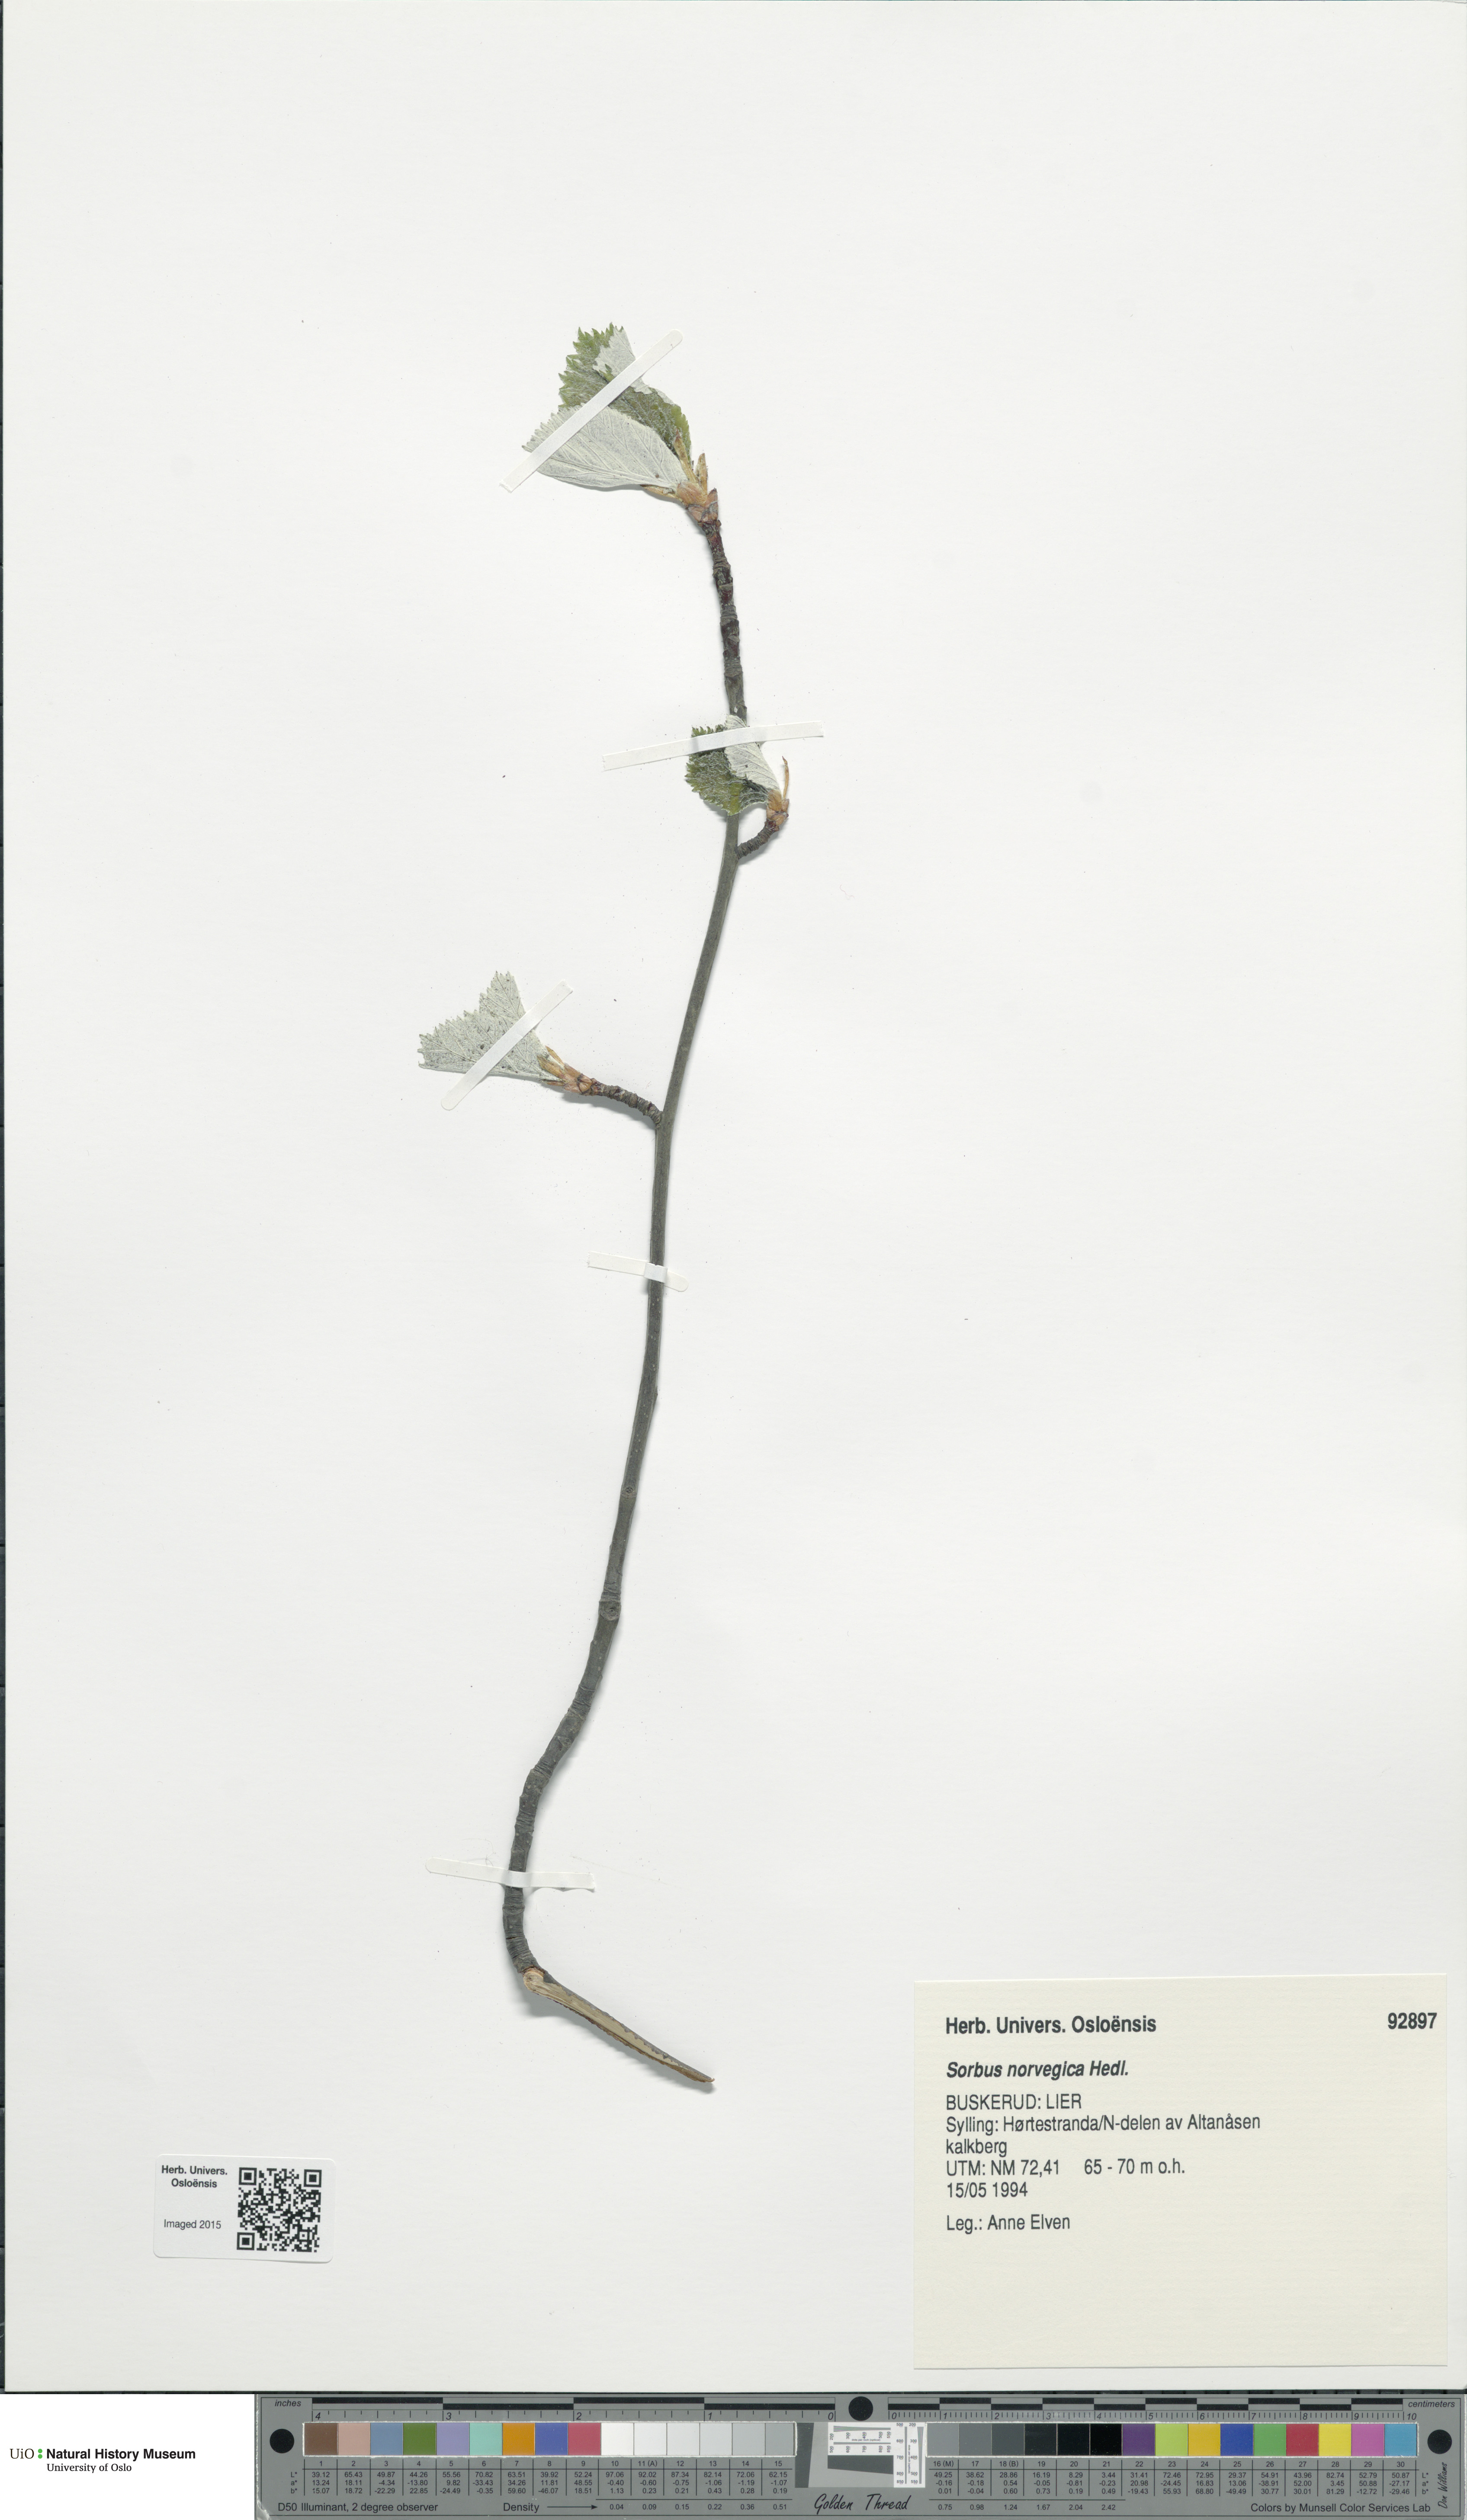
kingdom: Plantae
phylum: Tracheophyta
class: Magnoliopsida
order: Rosales
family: Rosaceae
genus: Aria
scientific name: Aria obtusifolia
